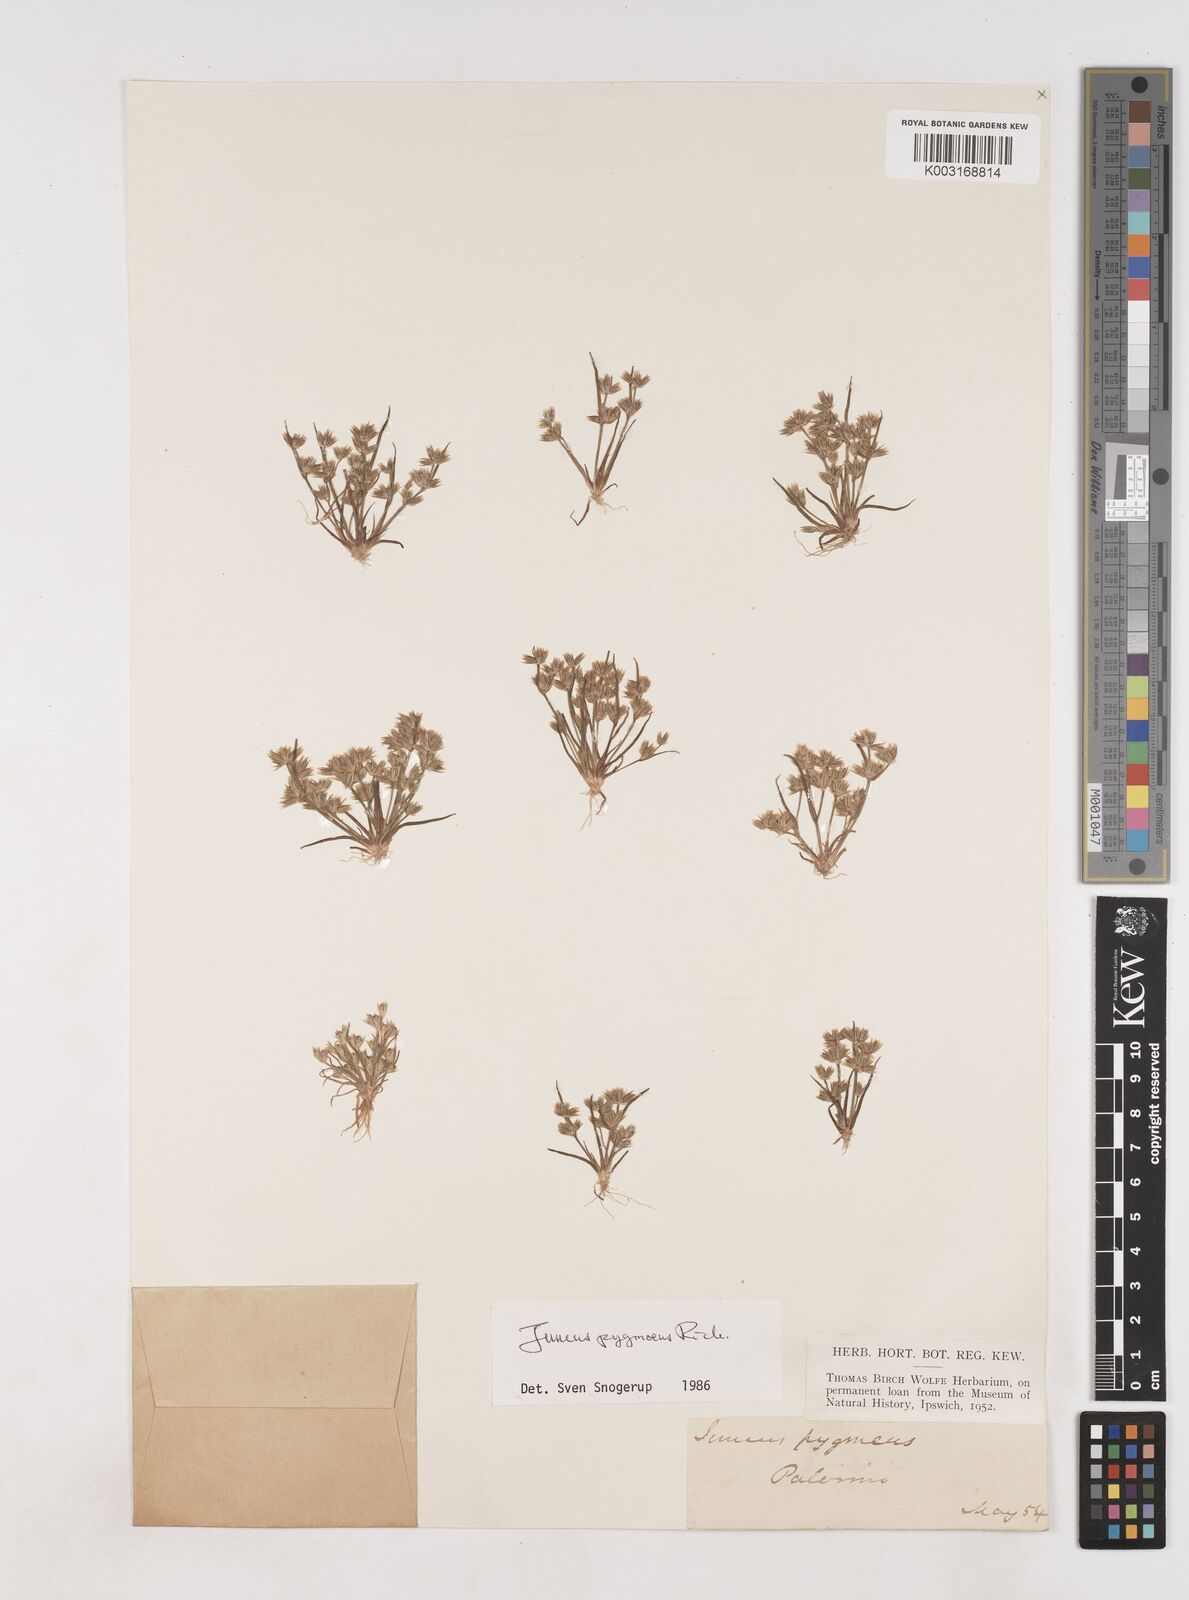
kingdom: Plantae
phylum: Tracheophyta
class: Liliopsida
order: Poales
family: Juncaceae
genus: Juncus
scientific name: Juncus pygmaeus
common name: Pigmy rush
